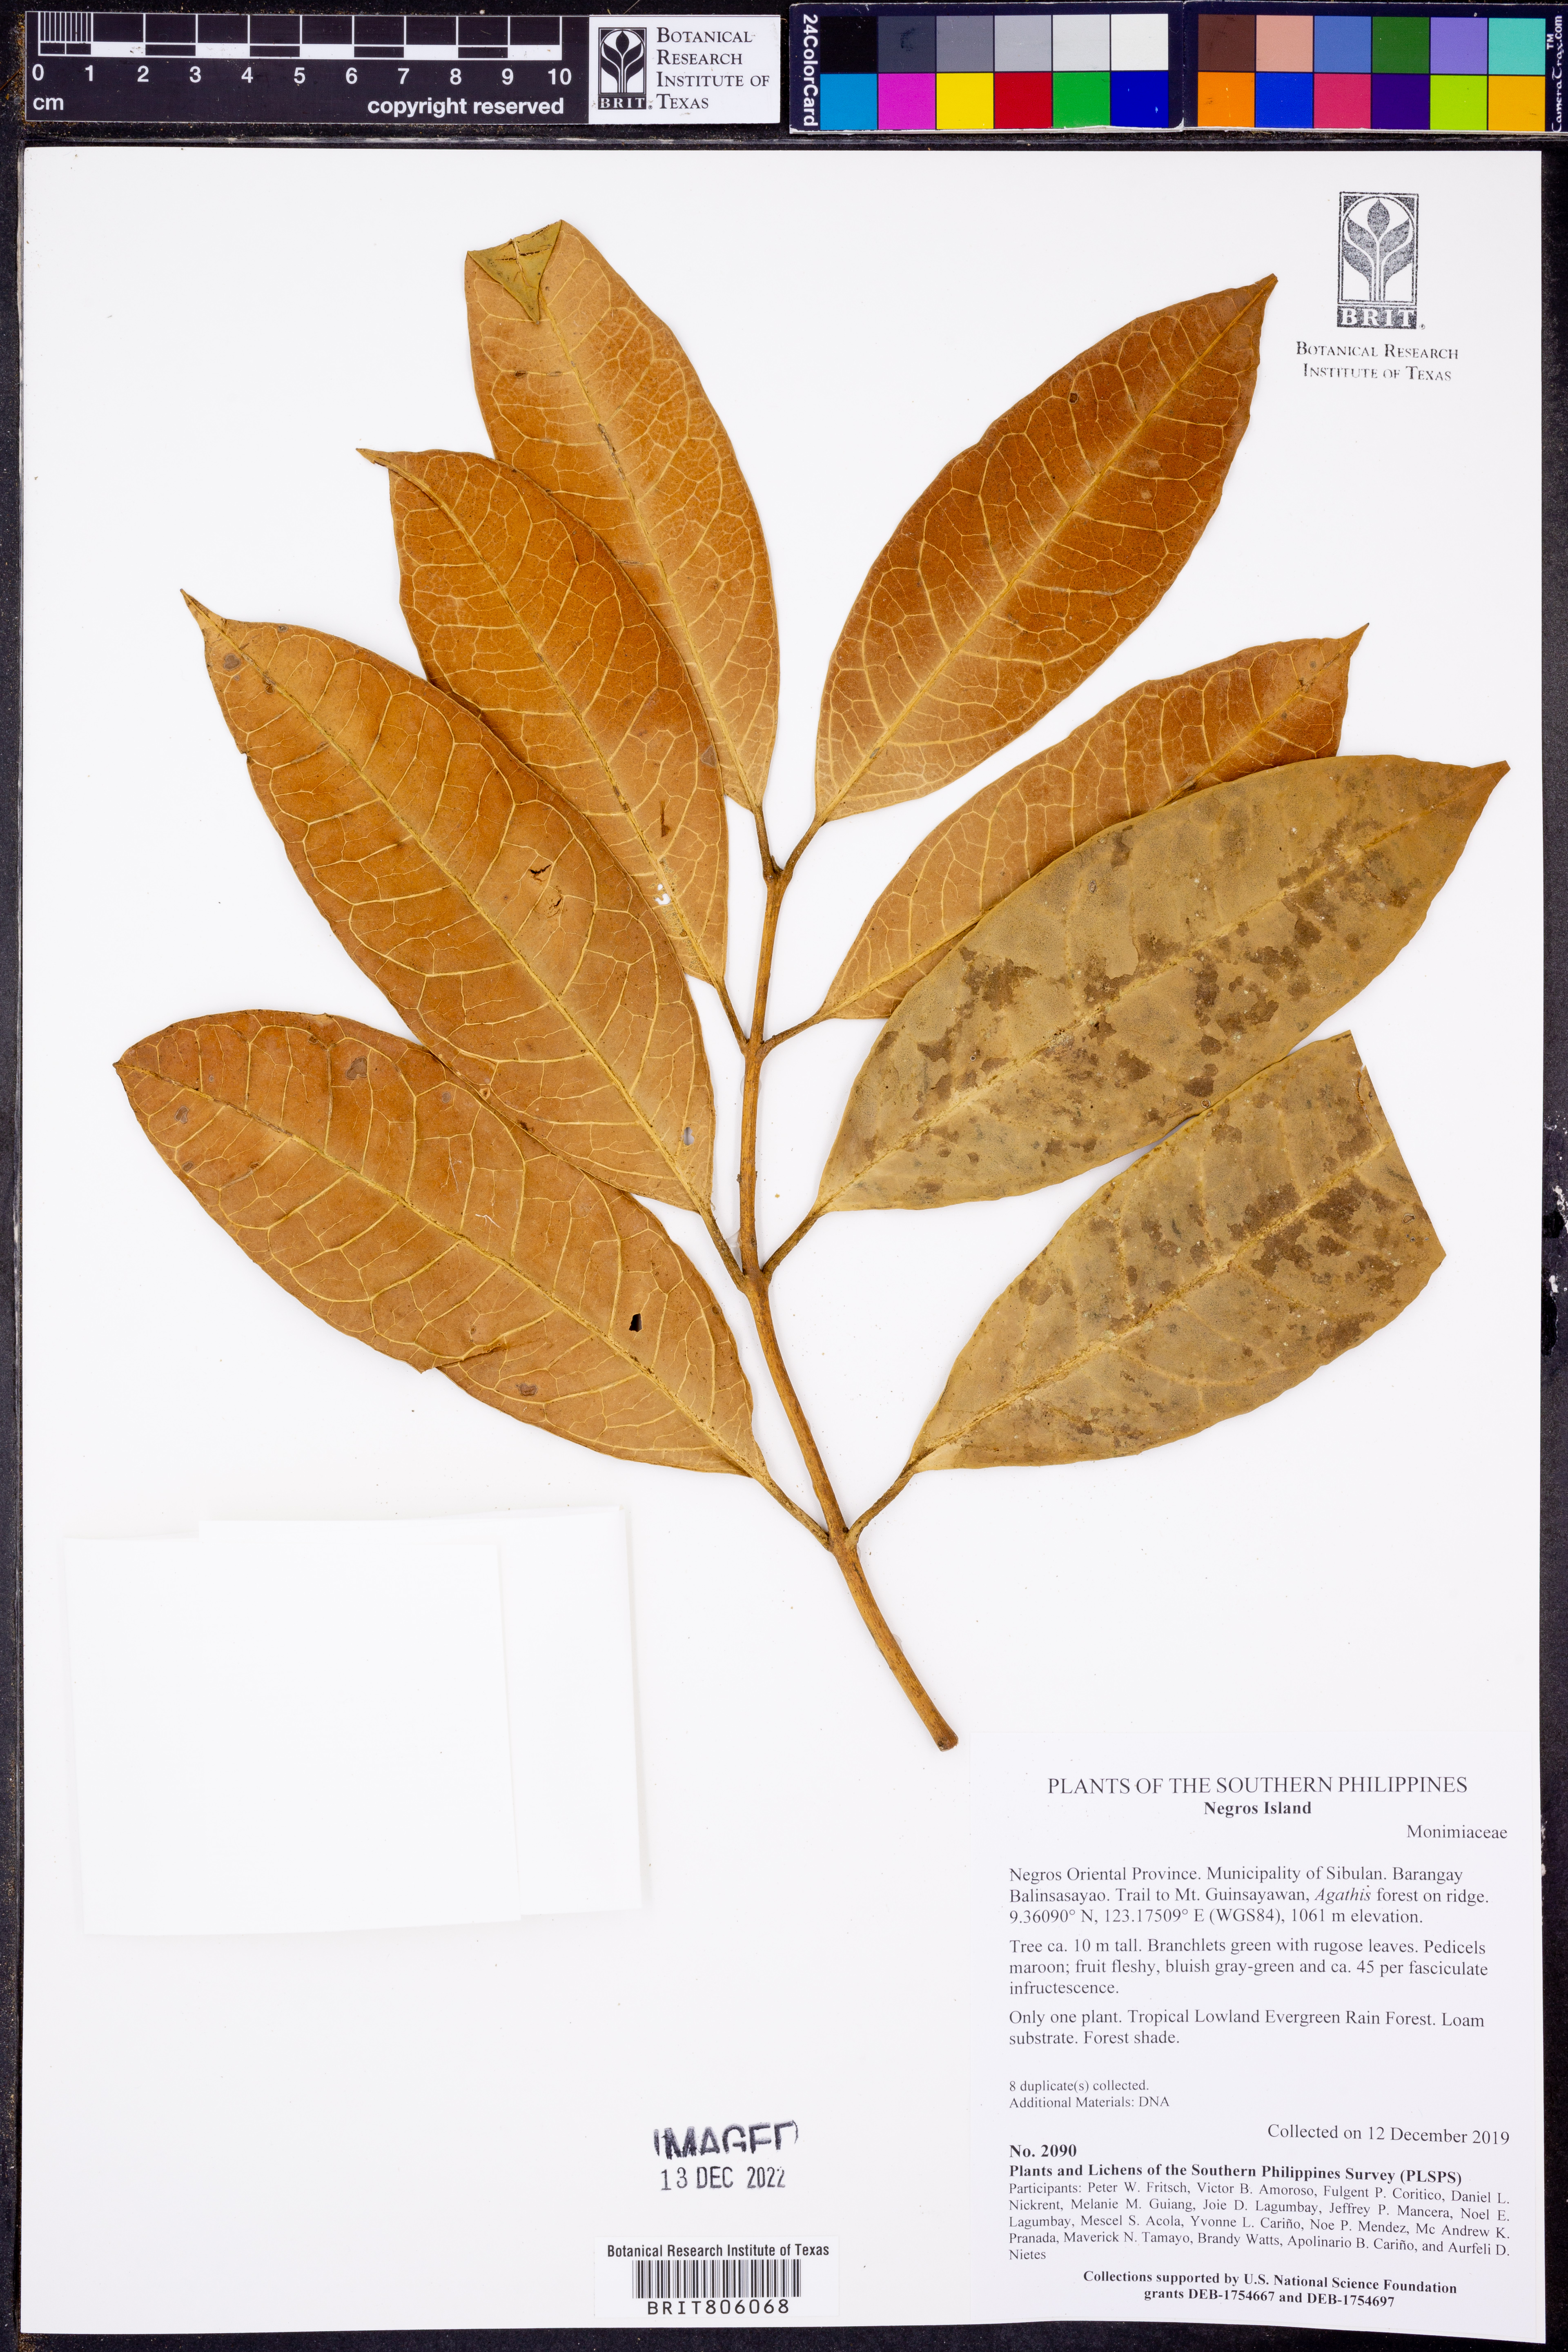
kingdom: Plantae
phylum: Tracheophyta
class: Magnoliopsida
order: Laurales
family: Siparunaceae
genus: Siparuna
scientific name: Siparuna
